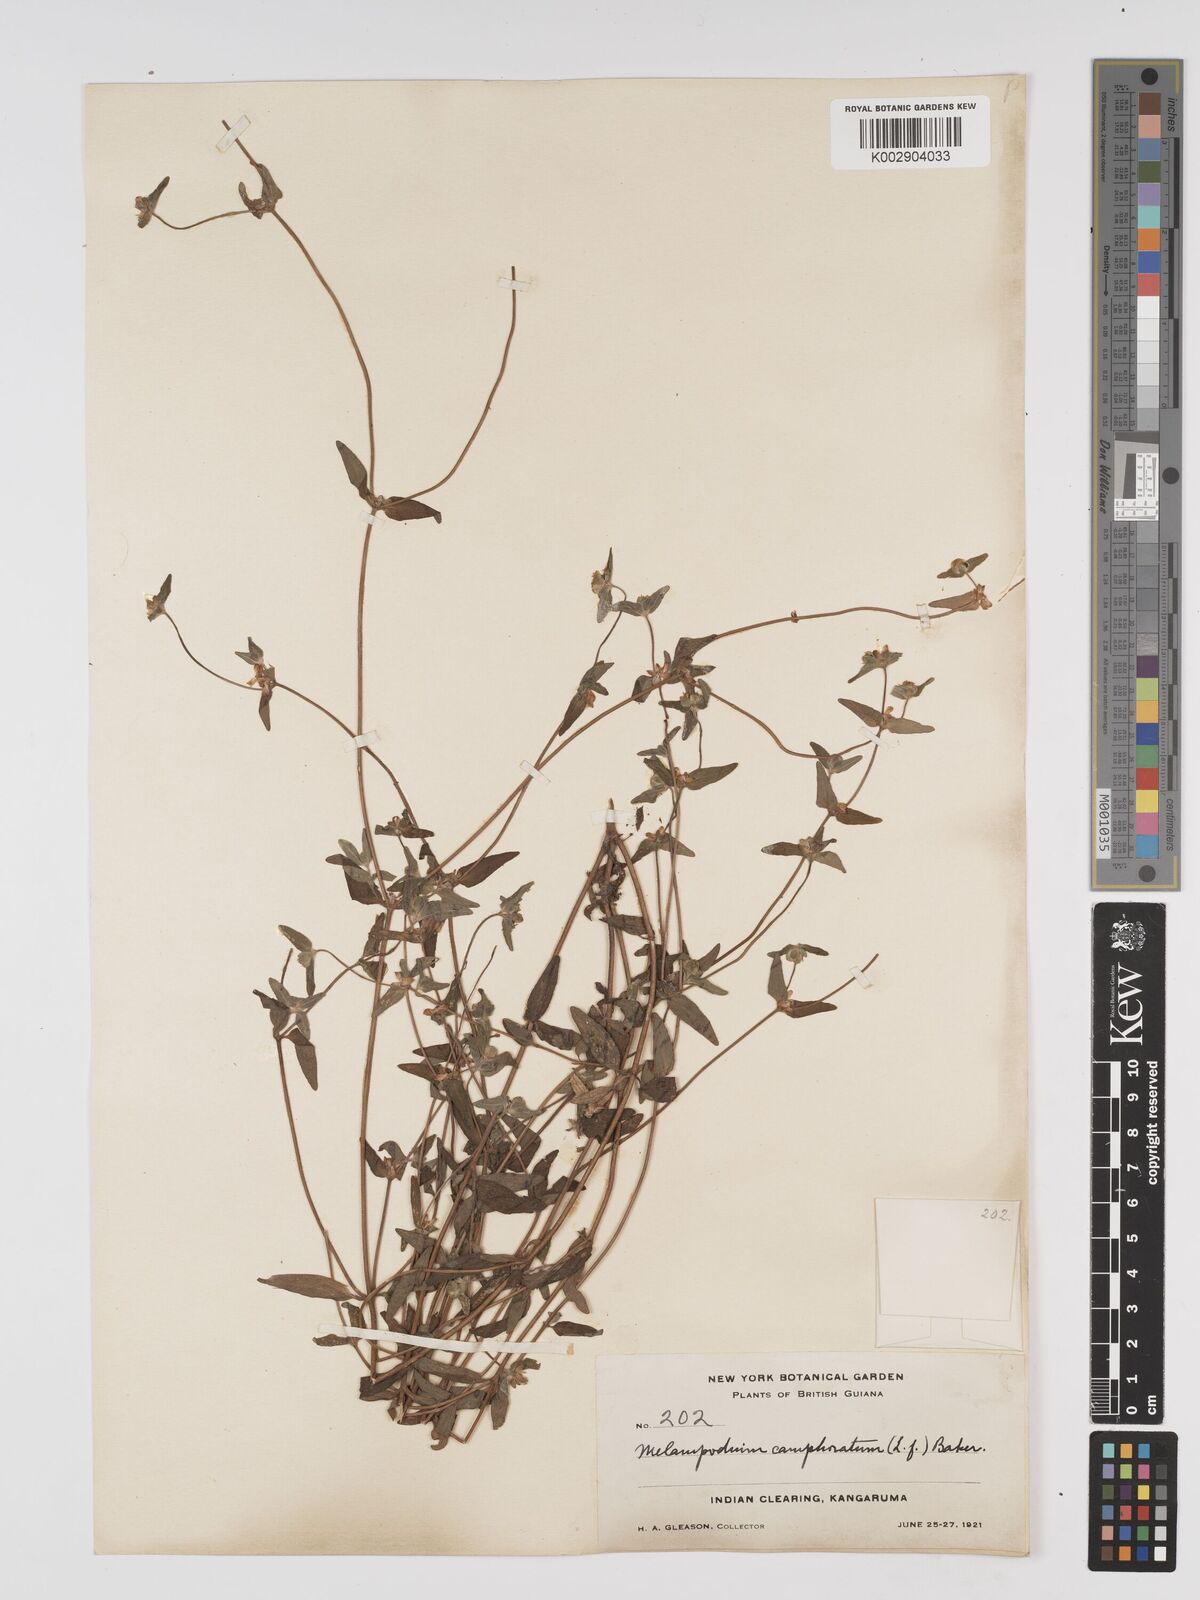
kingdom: Plantae
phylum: Tracheophyta
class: Magnoliopsida
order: Asterales
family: Asteraceae
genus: Unxia
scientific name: Unxia camphorata
